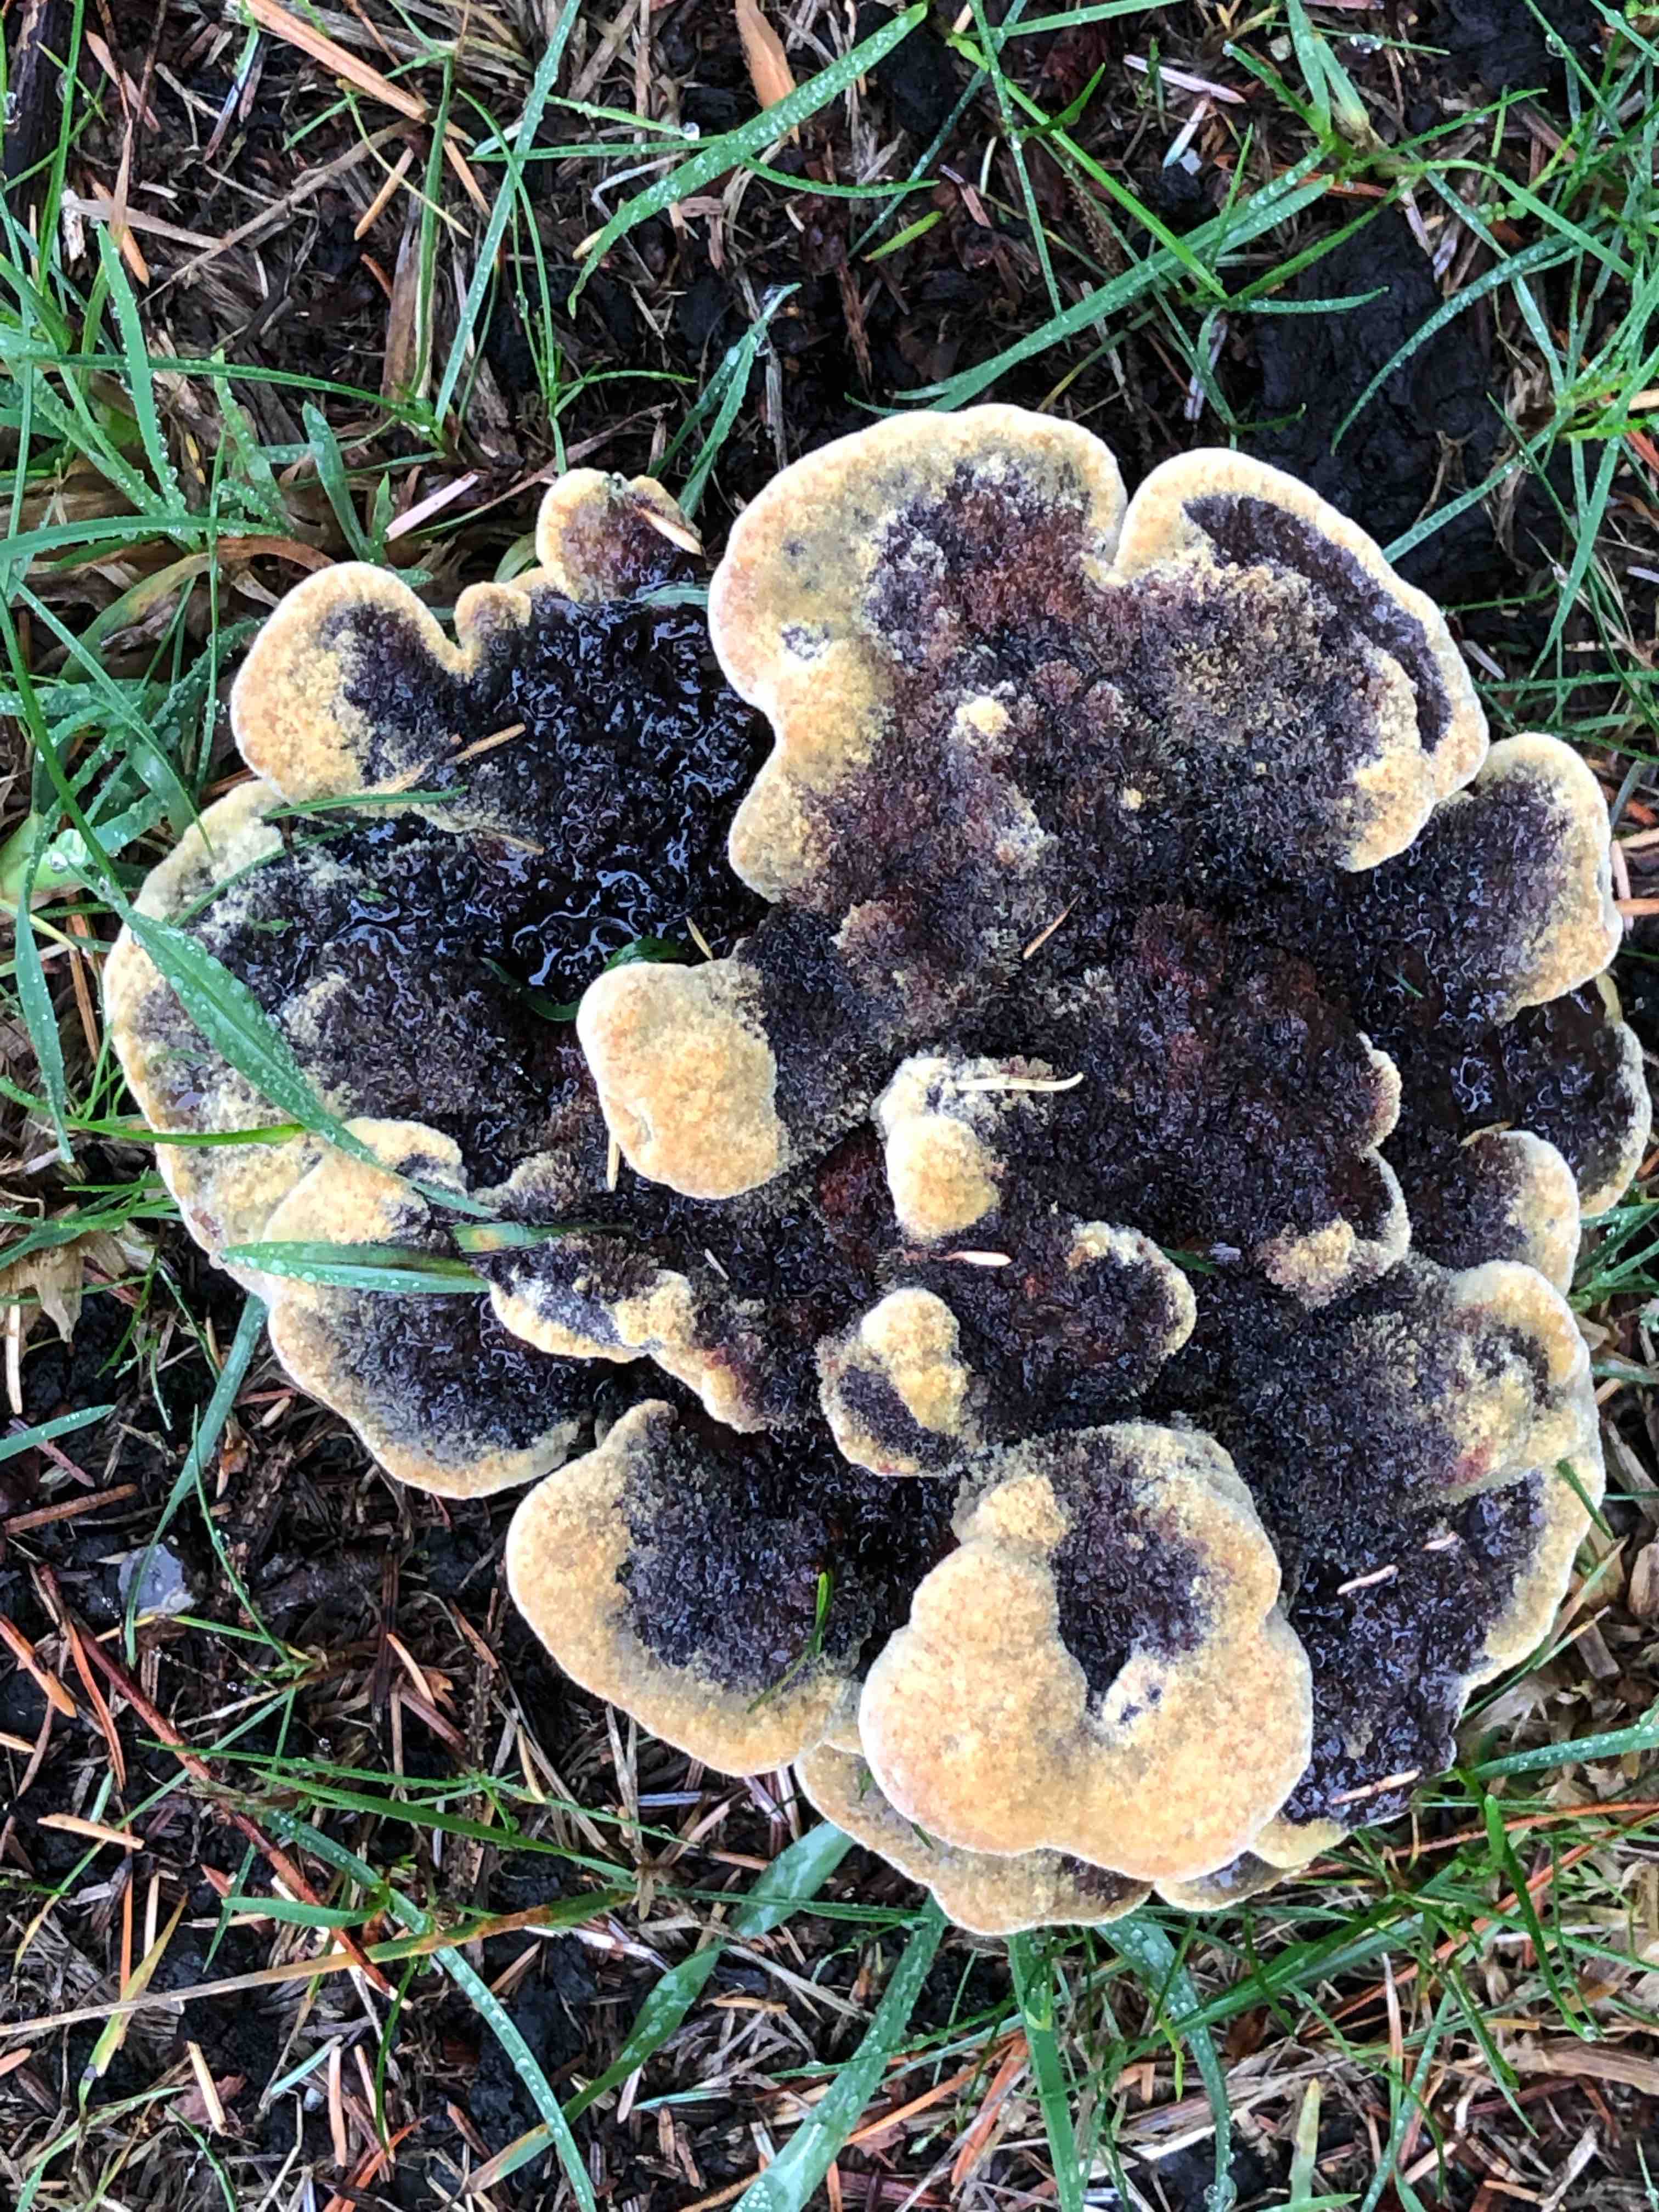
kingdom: Fungi
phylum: Basidiomycota
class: Agaricomycetes
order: Polyporales
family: Laetiporaceae
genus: Phaeolus
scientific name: Phaeolus schweinitzii
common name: brunporesvamp
